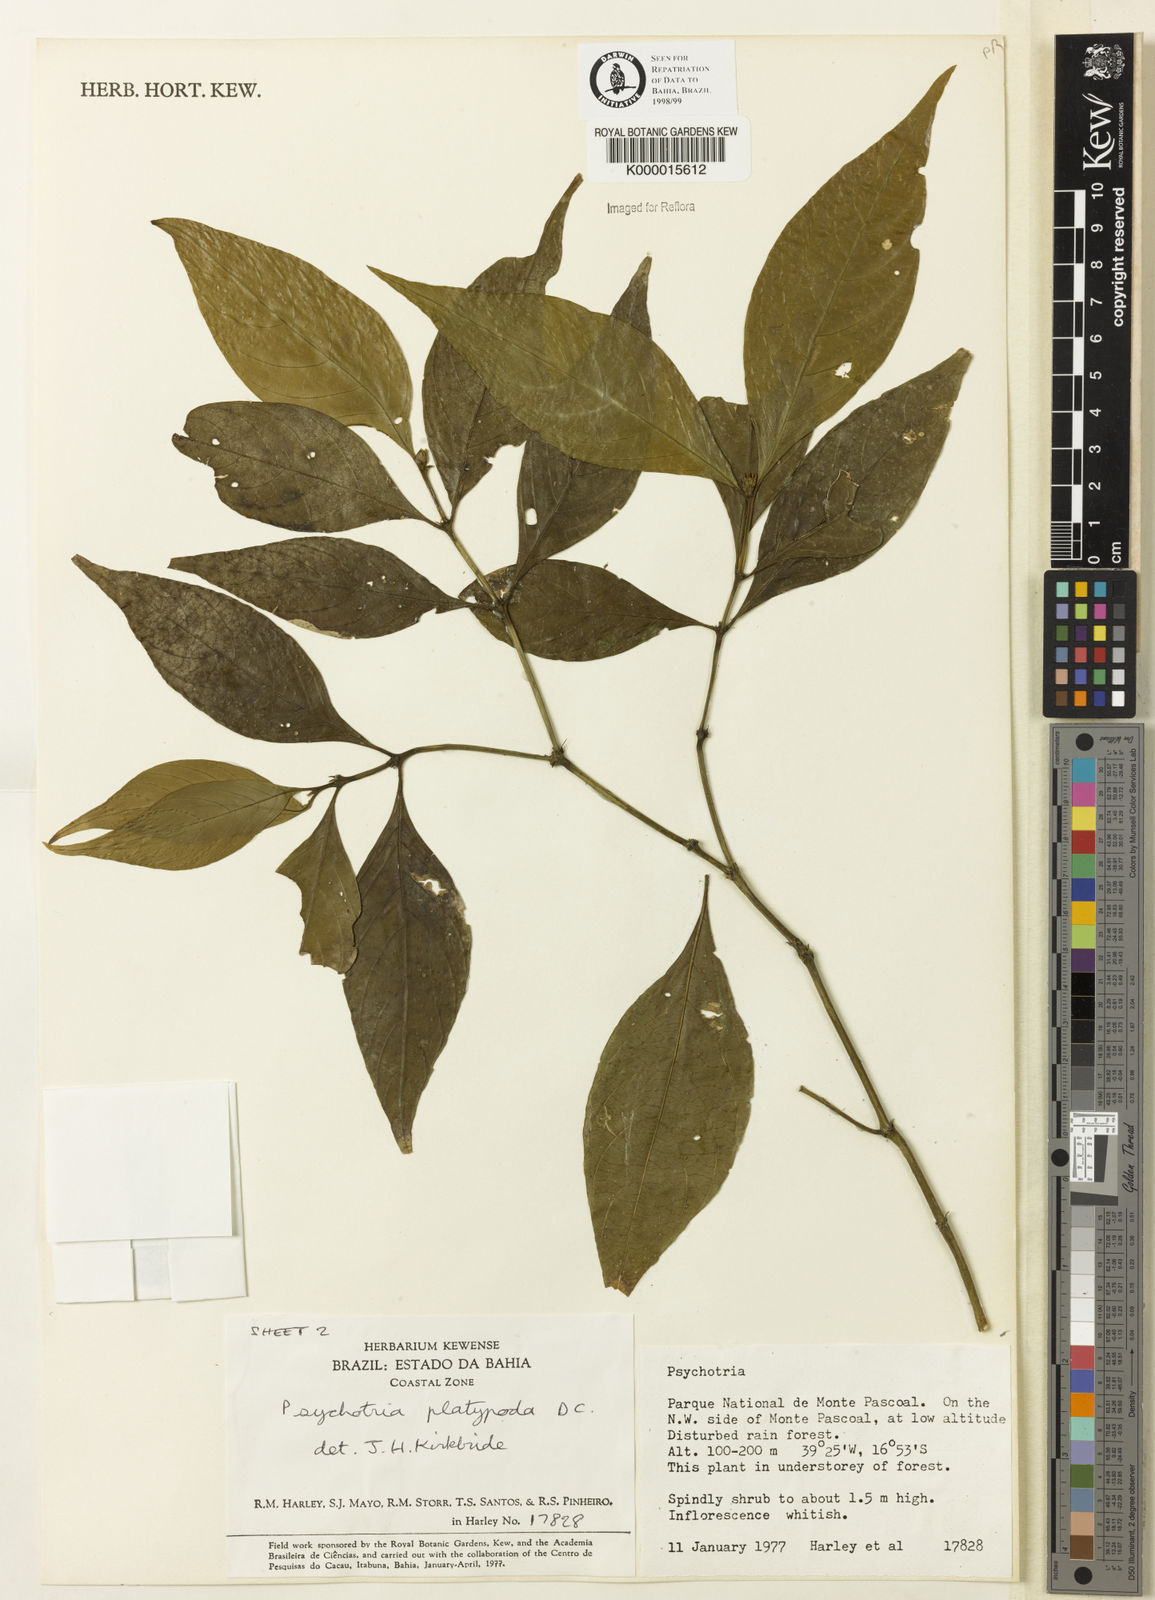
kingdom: Plantae
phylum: Tracheophyta
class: Magnoliopsida
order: Gentianales
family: Rubiaceae
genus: Palicourea
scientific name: Palicourea dichotoma
